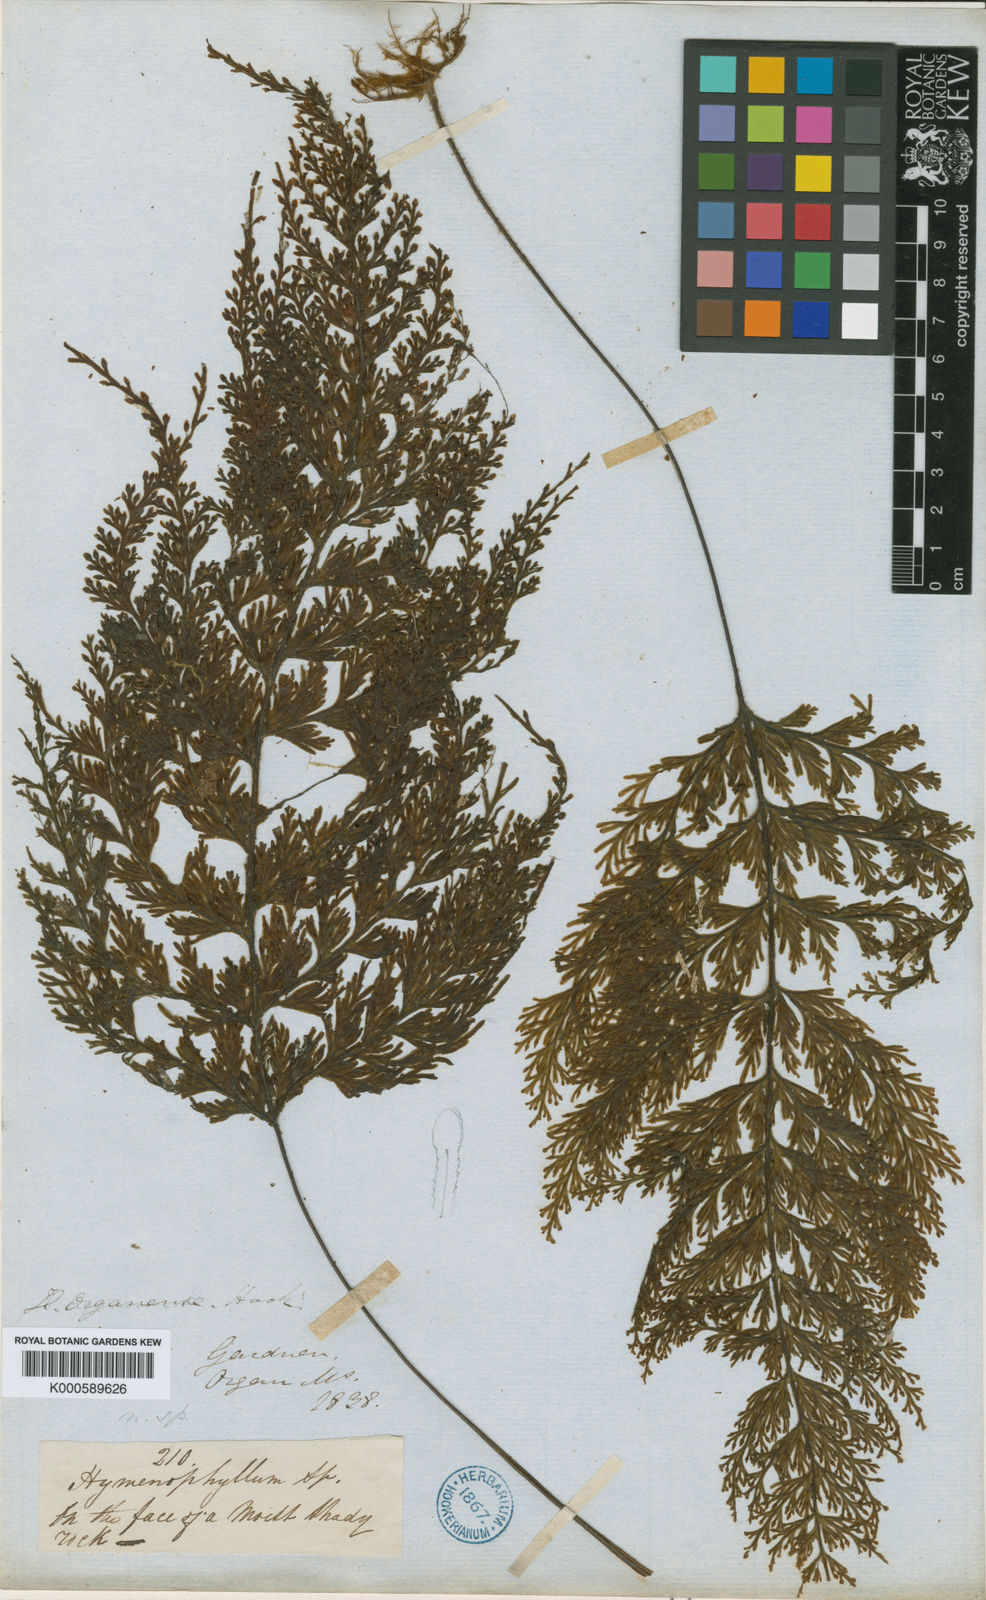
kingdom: Plantae
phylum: Tracheophyta
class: Polypodiopsida
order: Hymenophyllales
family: Hymenophyllaceae
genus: Hymenophyllum
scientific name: Hymenophyllum microcarpum
